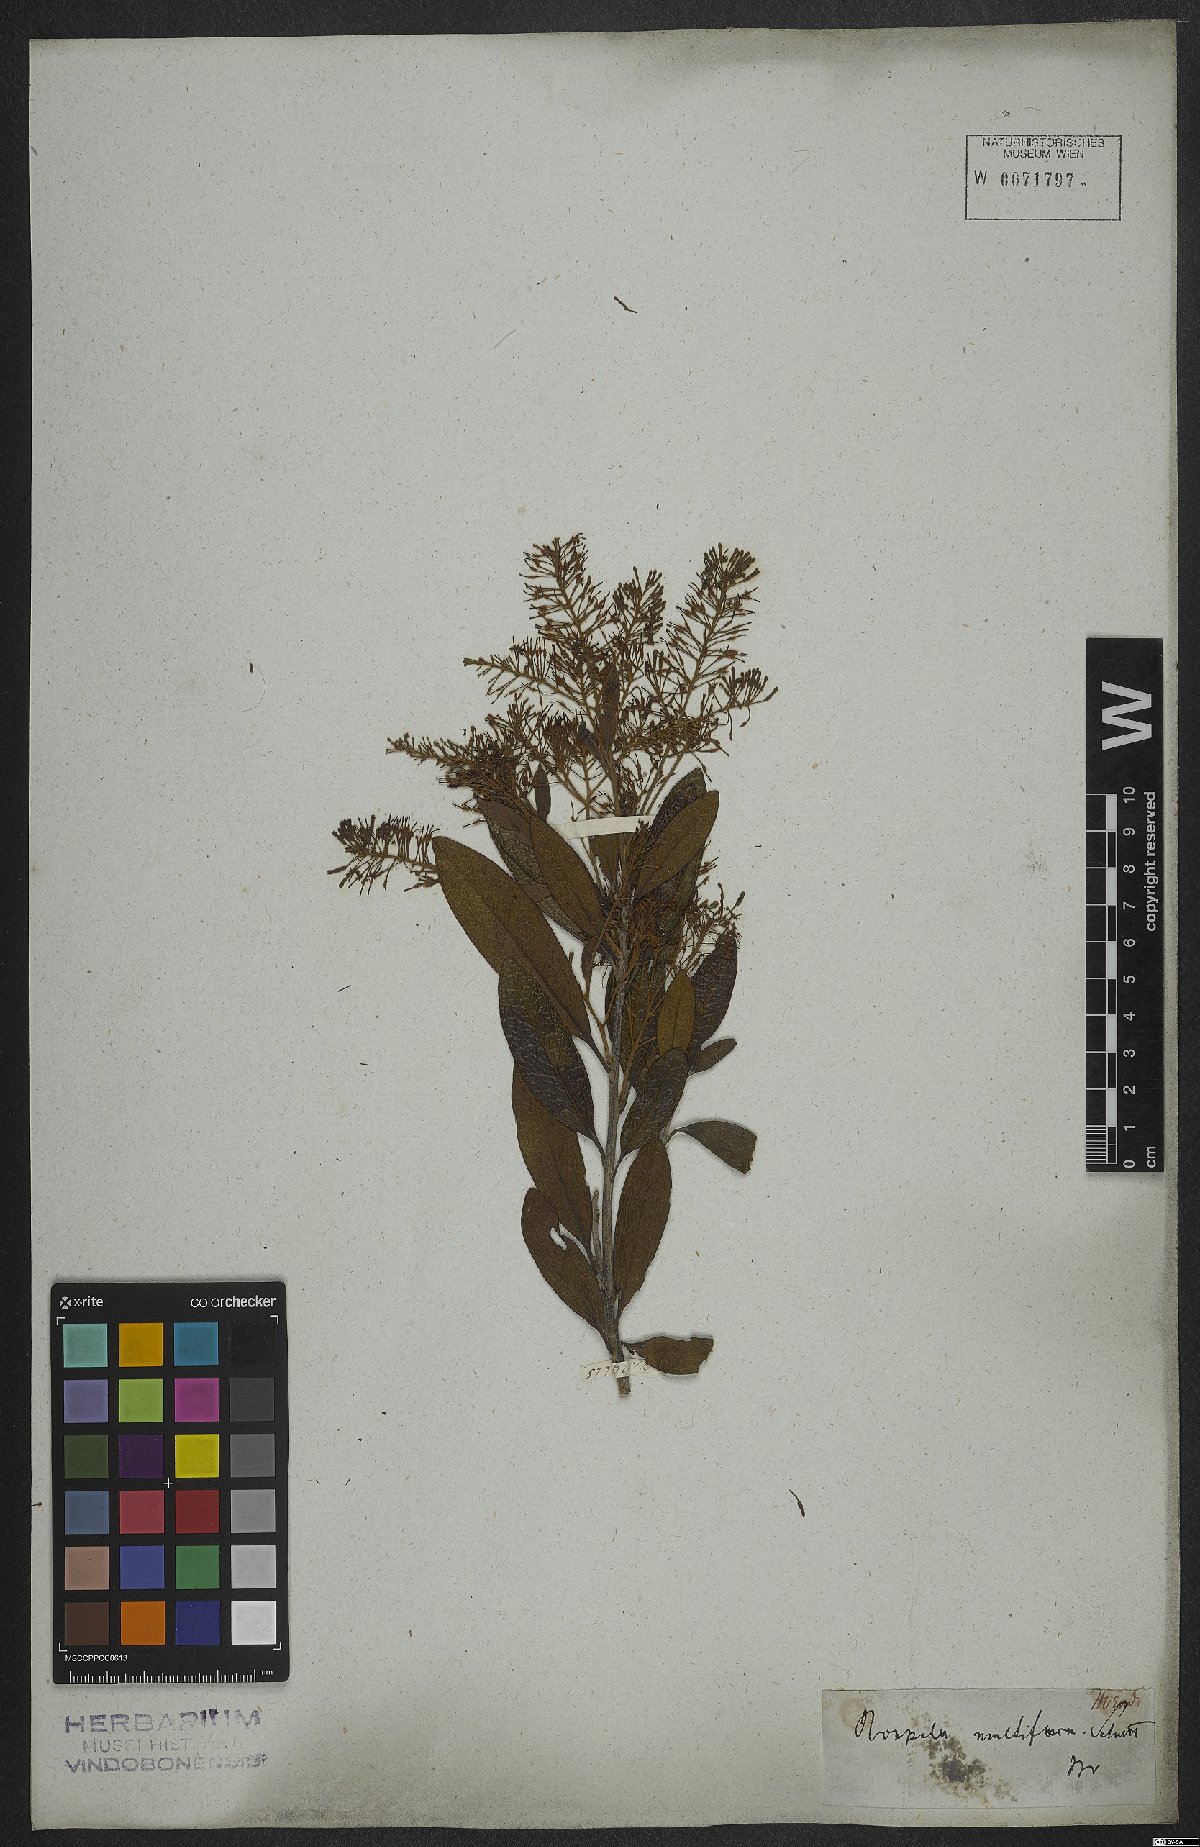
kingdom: Plantae
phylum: Tracheophyta
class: Magnoliopsida
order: Proteales
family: Proteaceae
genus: Panopsis
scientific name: Panopsis multiflora
